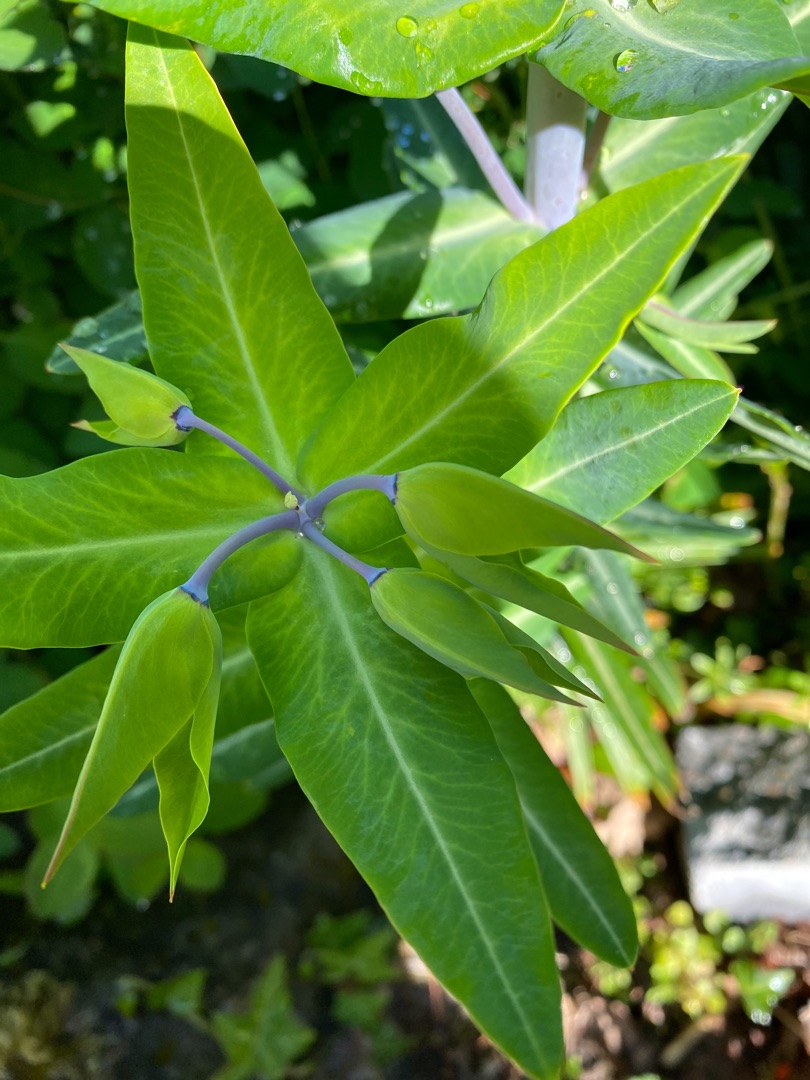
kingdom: Plantae
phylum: Tracheophyta
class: Magnoliopsida
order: Malpighiales
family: Euphorbiaceae
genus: Euphorbia
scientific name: Euphorbia lathyris
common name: Kors-vortemælk
